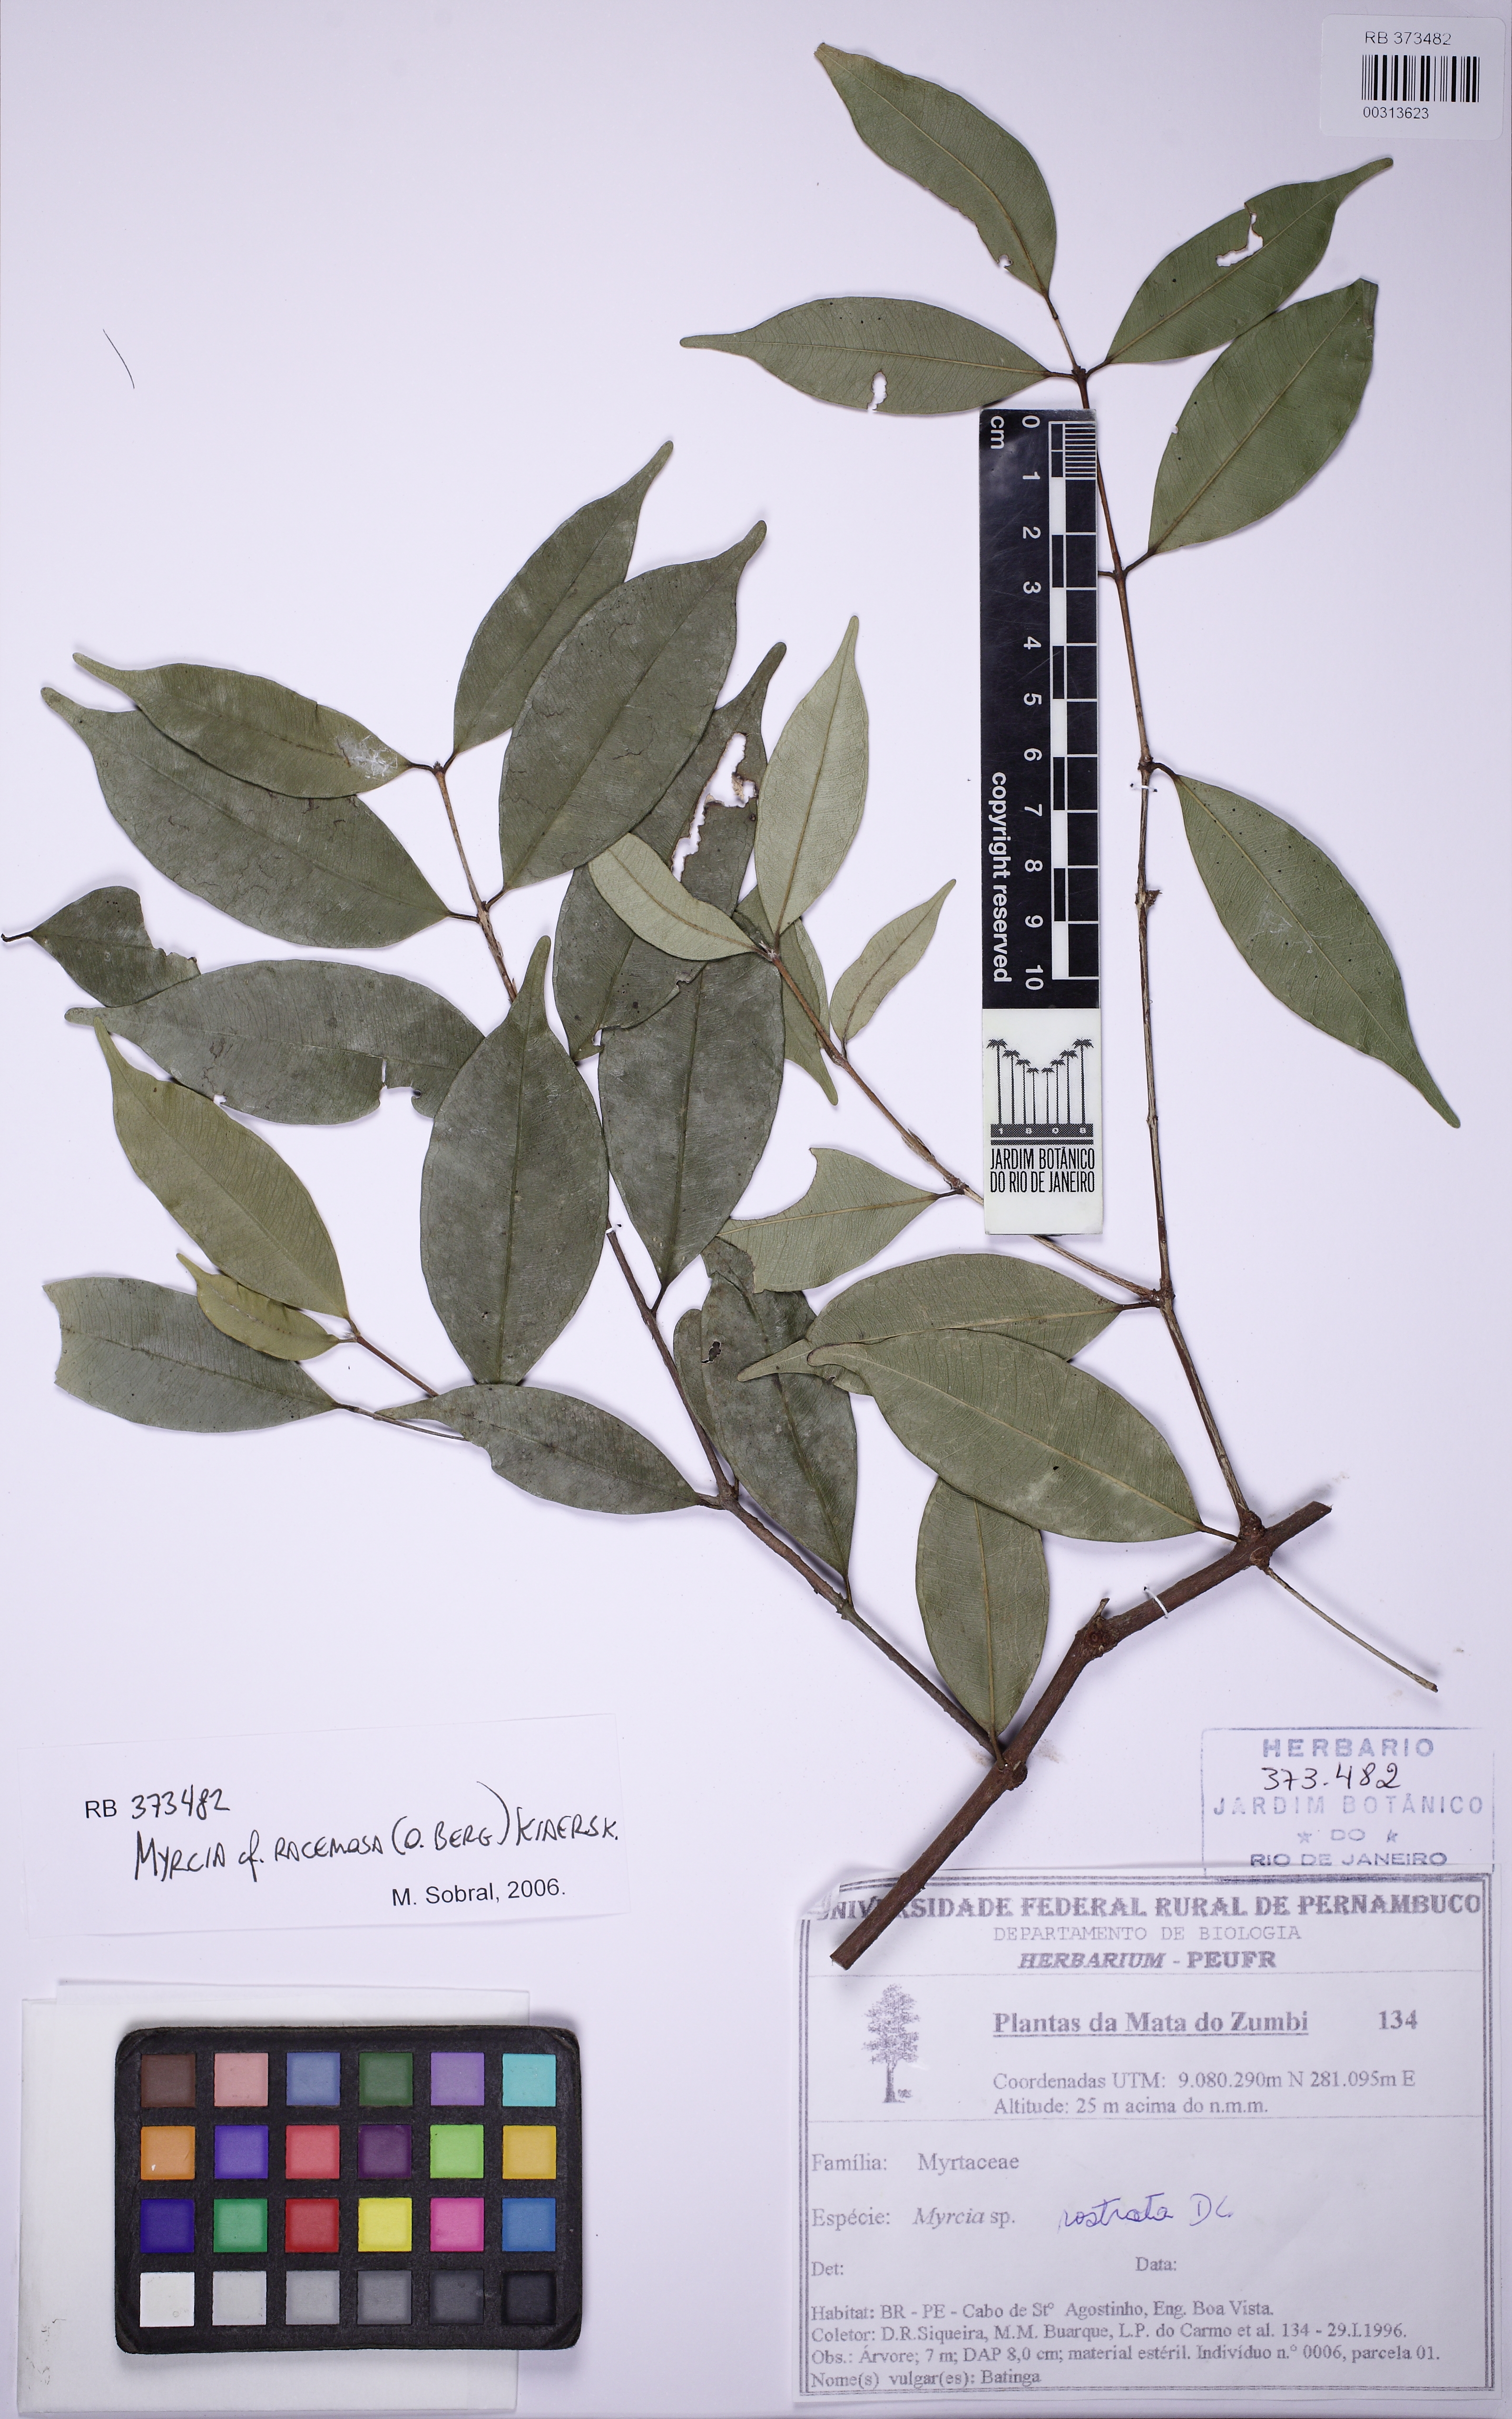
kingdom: Plantae
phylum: Tracheophyta
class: Magnoliopsida
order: Myrtales
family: Myrtaceae
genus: Myrcia
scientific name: Myrcia racemosa
